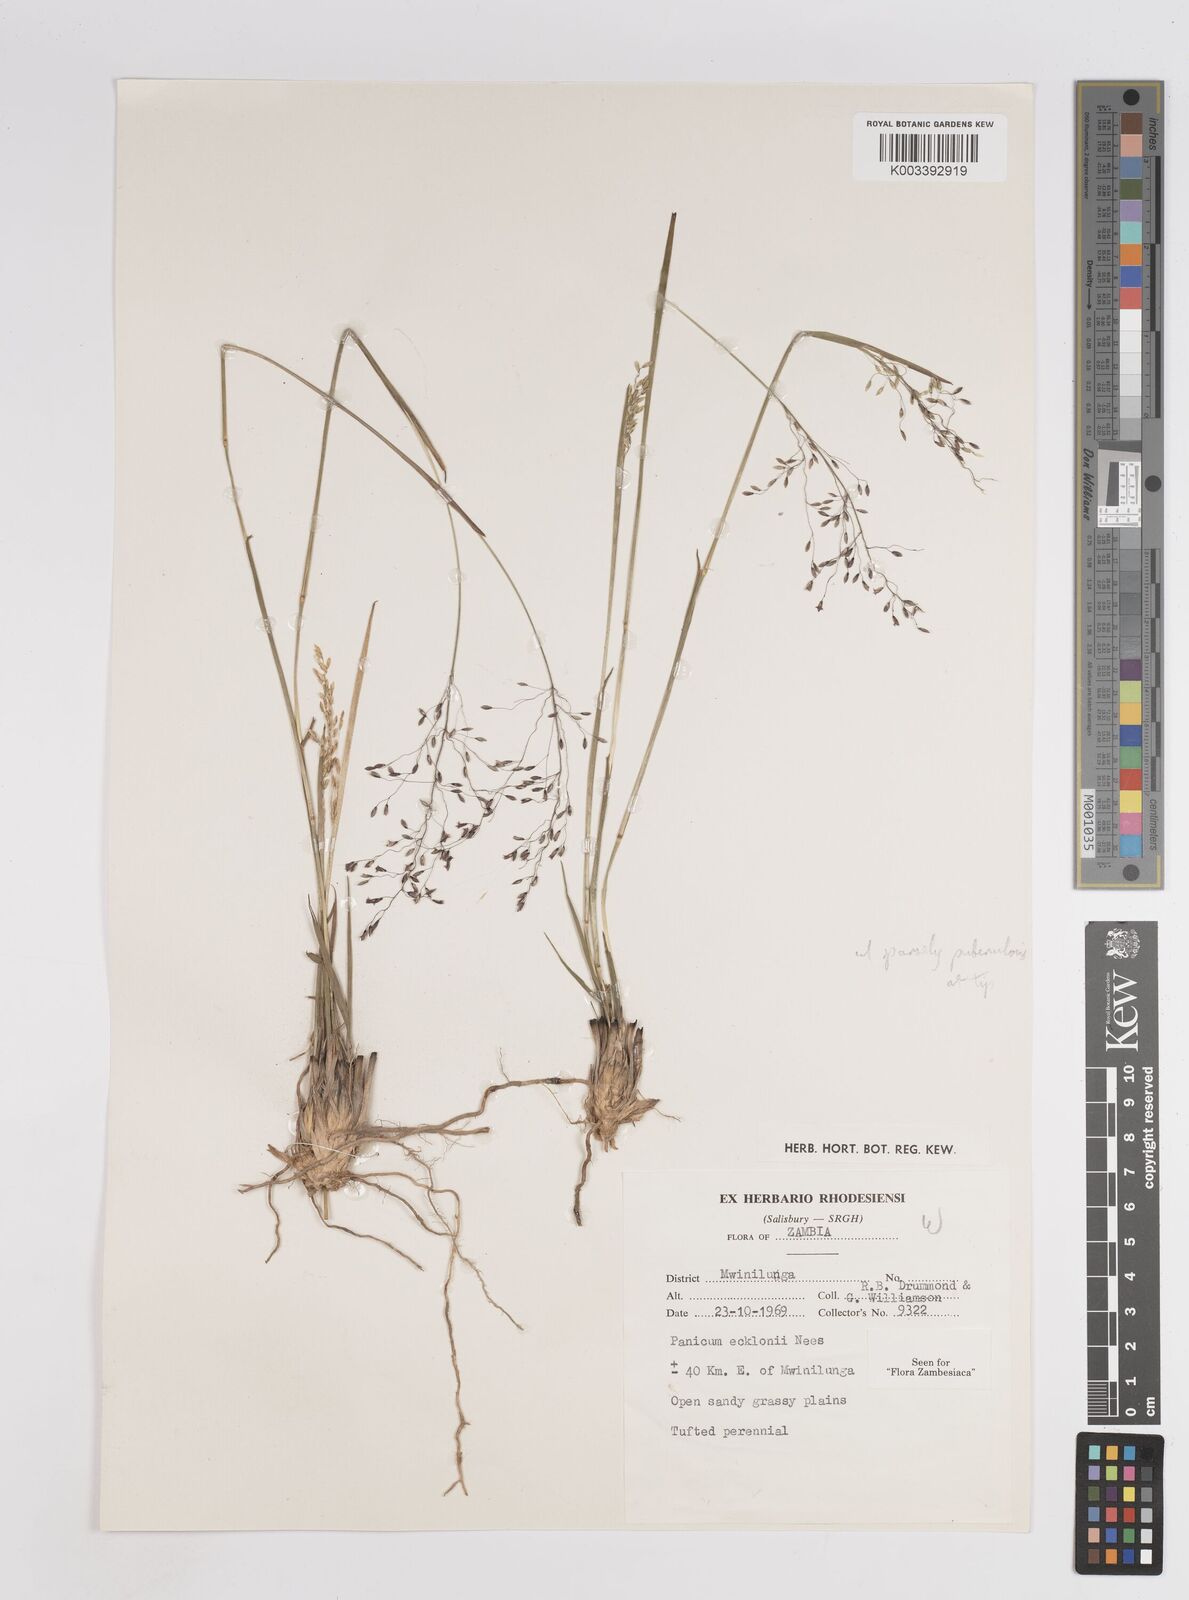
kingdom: Plantae
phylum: Tracheophyta
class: Liliopsida
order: Poales
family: Poaceae
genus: Adenochloa
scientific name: Adenochloa ecklonii
